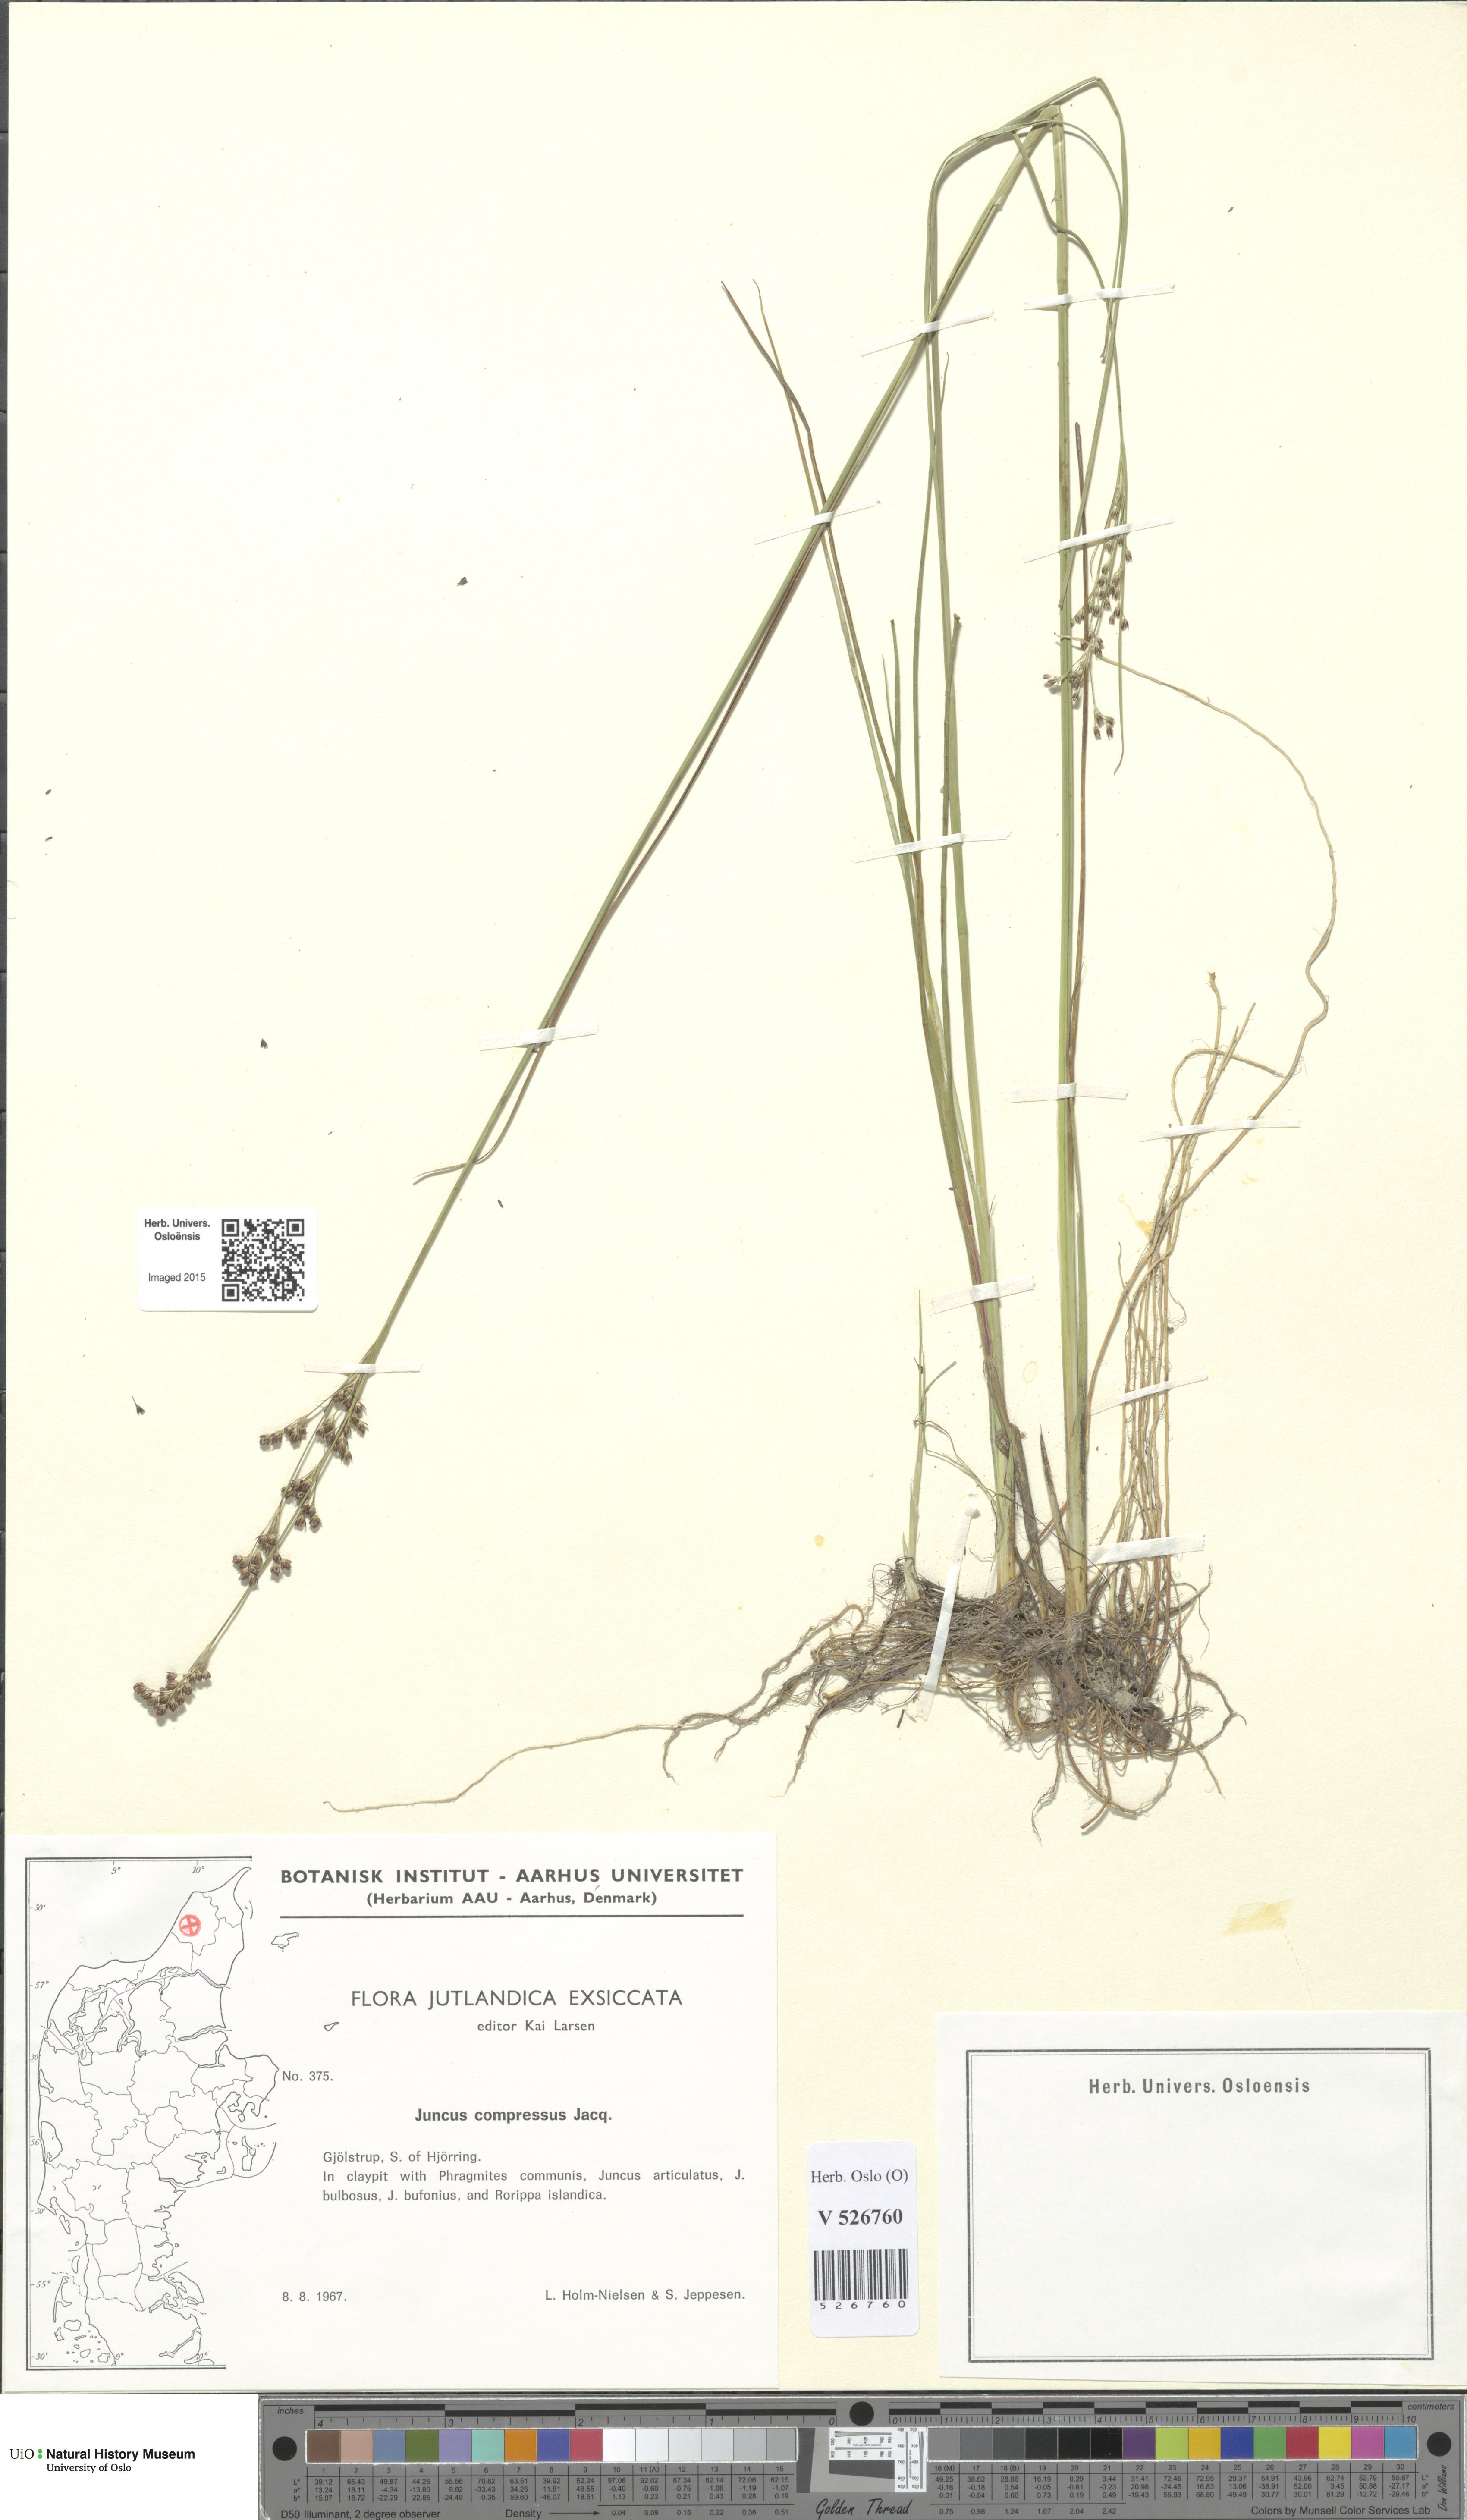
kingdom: Plantae
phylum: Tracheophyta
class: Liliopsida
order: Poales
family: Juncaceae
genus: Juncus
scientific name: Juncus compressus
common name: Round-fruited rush
